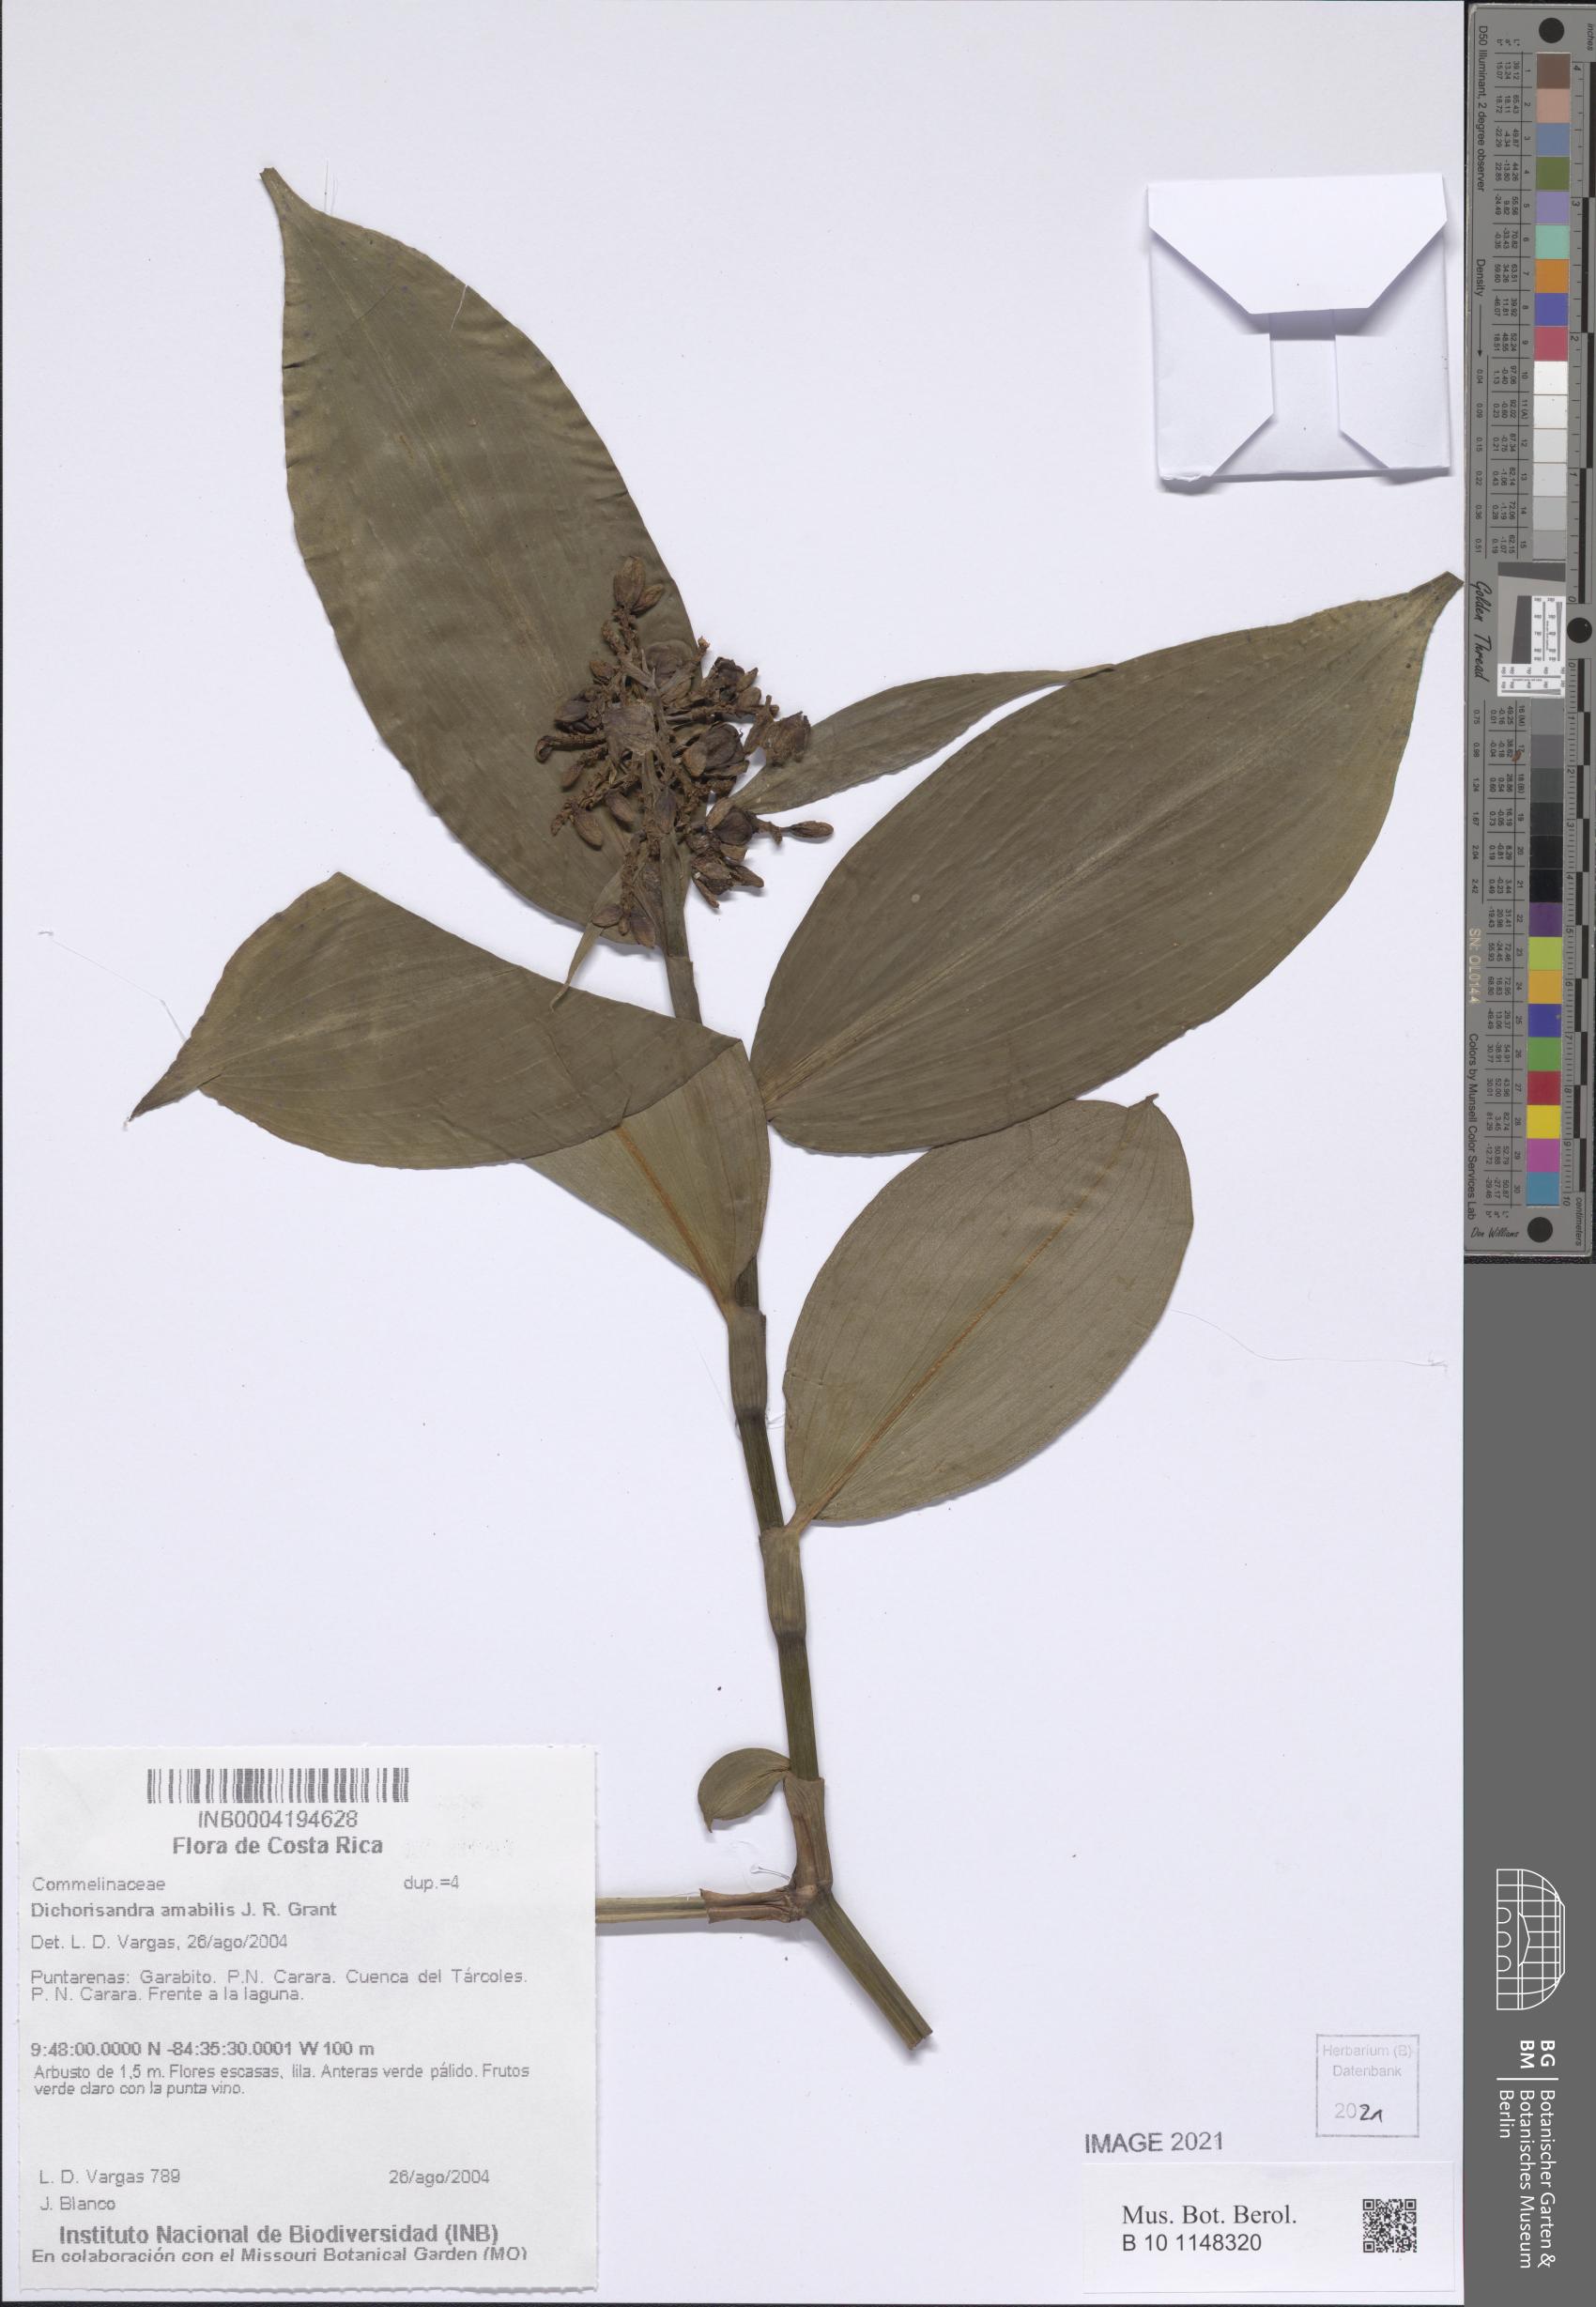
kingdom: Plantae
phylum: Tracheophyta
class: Liliopsida
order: Commelinales
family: Commelinaceae
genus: Dichorisandra
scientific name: Dichorisandra amabilis
